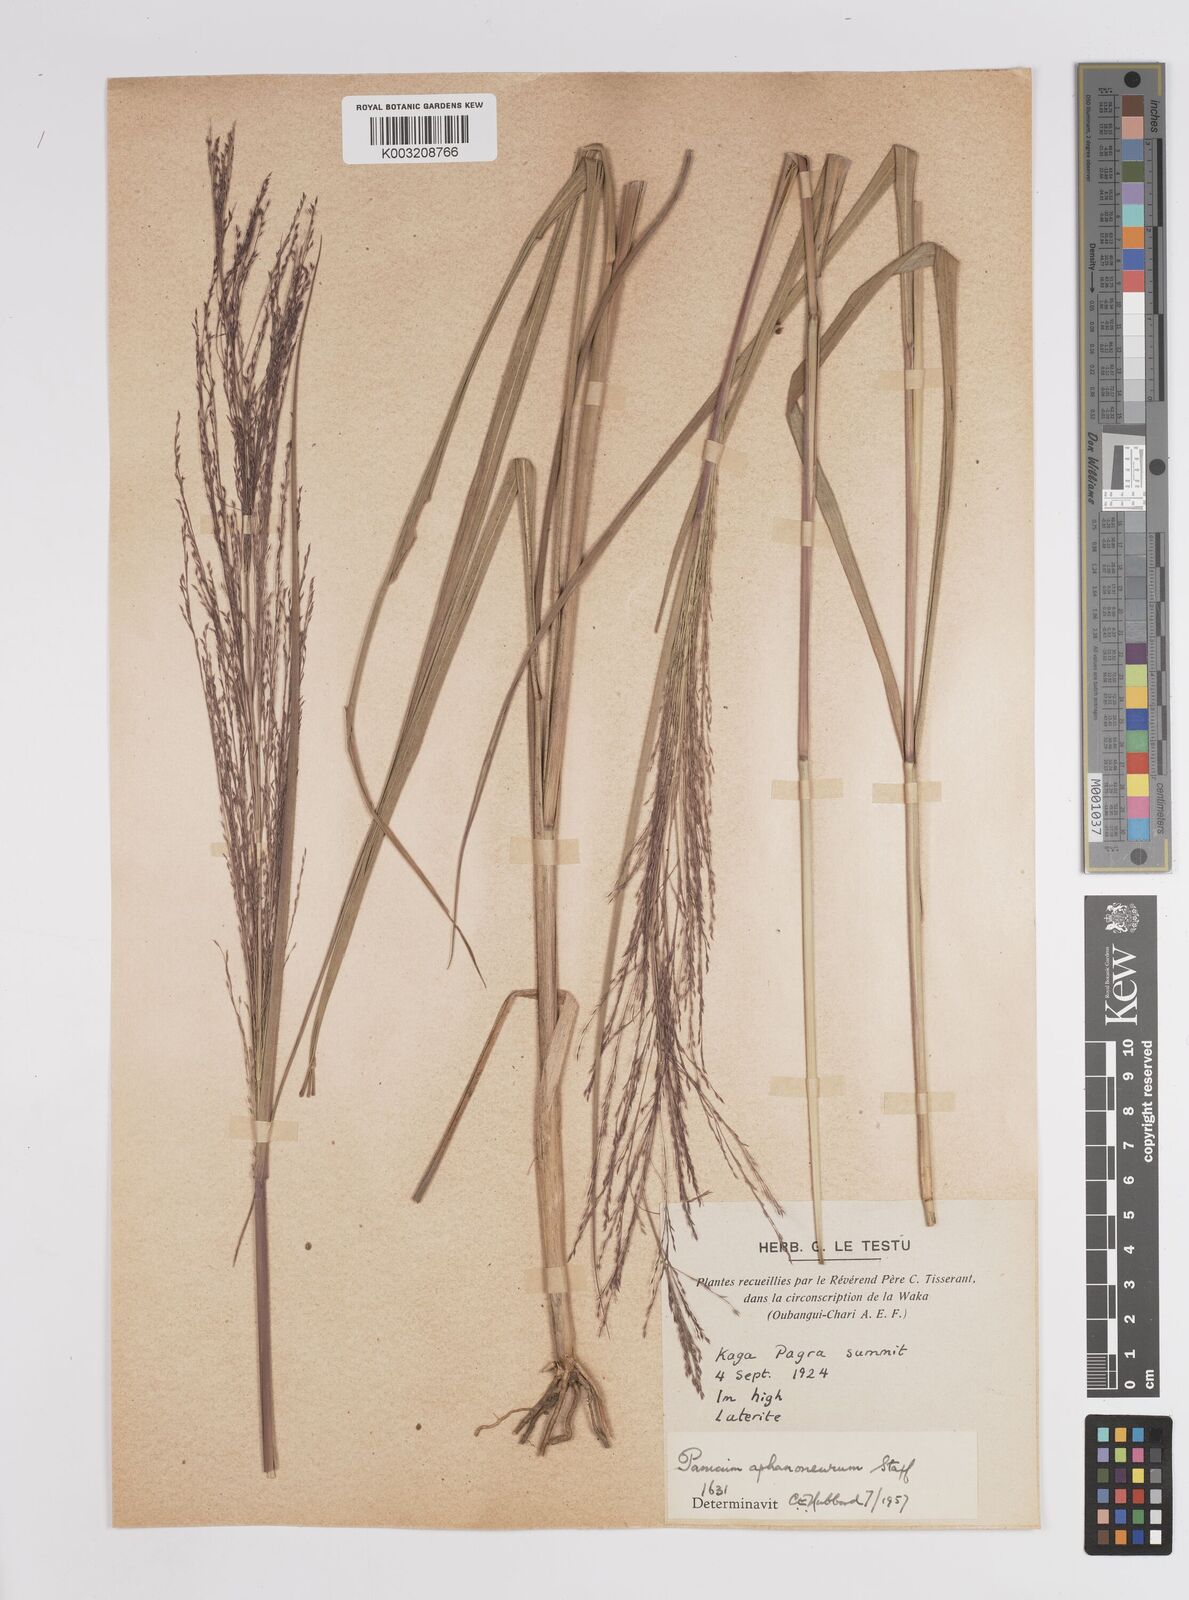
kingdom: Plantae
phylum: Tracheophyta
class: Liliopsida
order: Poales
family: Poaceae
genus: Panicum
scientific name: Panicum fluviicola
